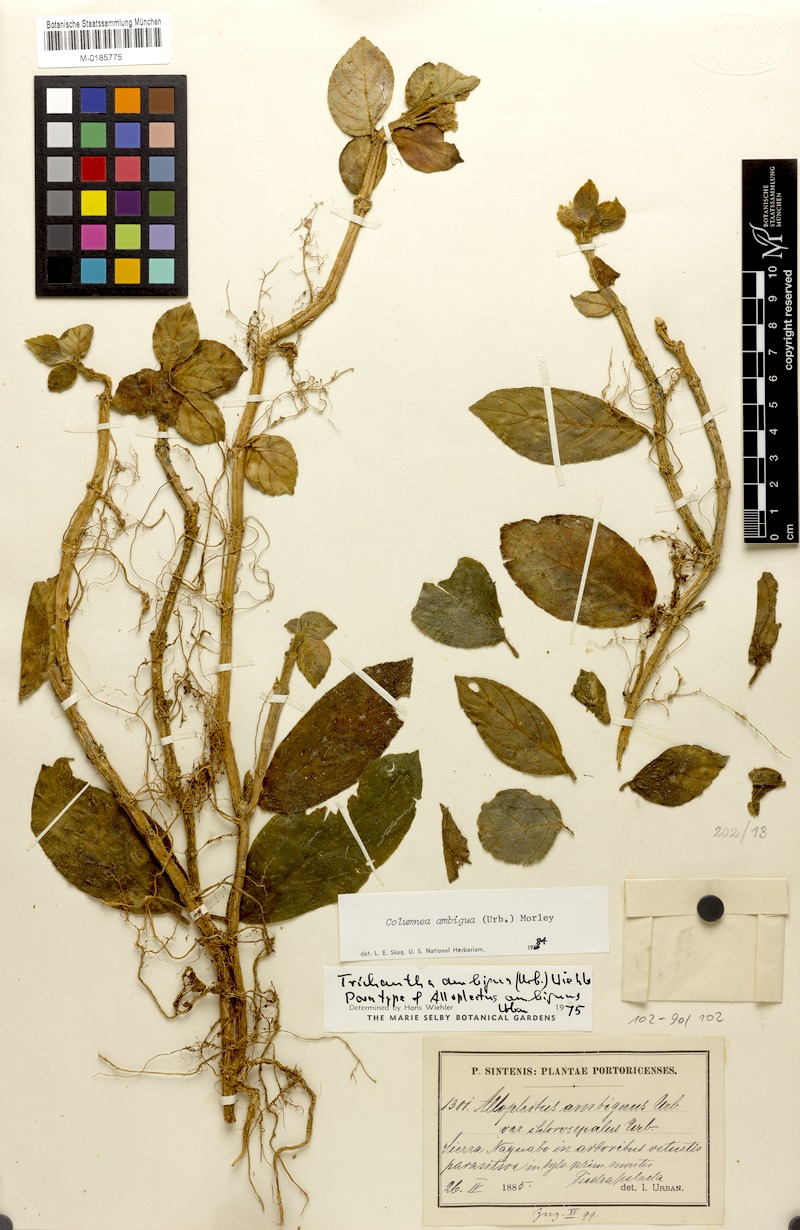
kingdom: Plantae
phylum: Tracheophyta
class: Magnoliopsida
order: Lamiales
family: Gesneriaceae
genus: Columnea
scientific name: Columnea ambigua
